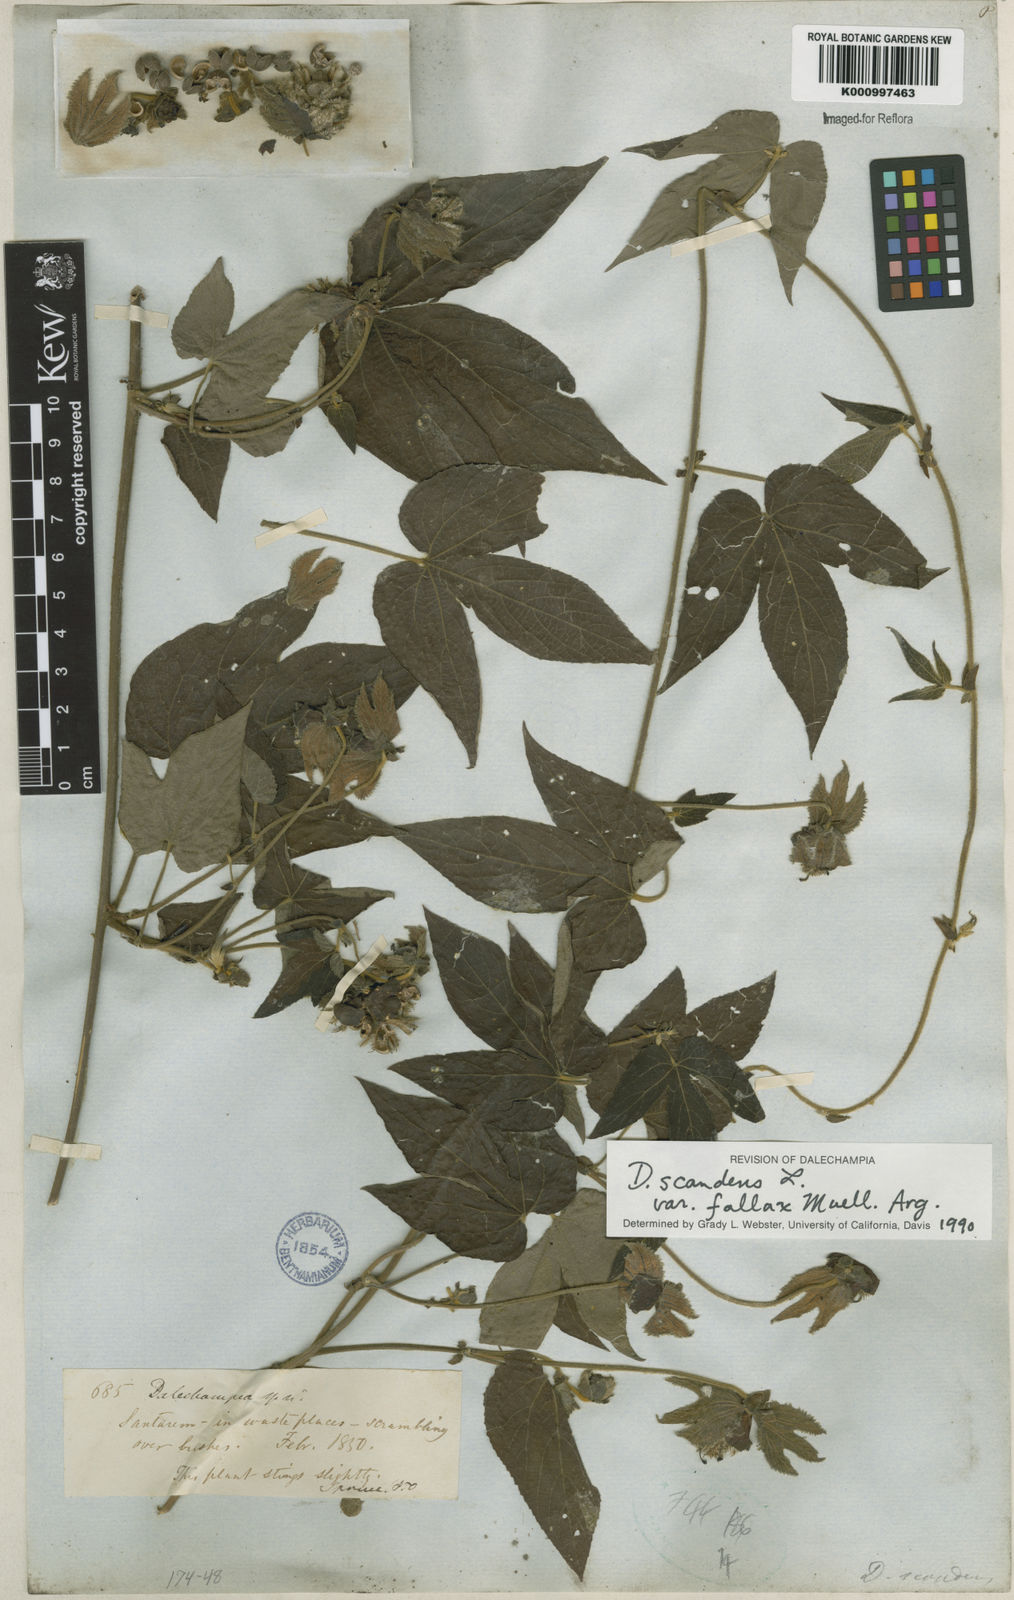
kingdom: Plantae
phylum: Tracheophyta
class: Magnoliopsida
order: Malpighiales
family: Euphorbiaceae
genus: Dalechampia
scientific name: Dalechampia scandens
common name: Spurgecreeper
